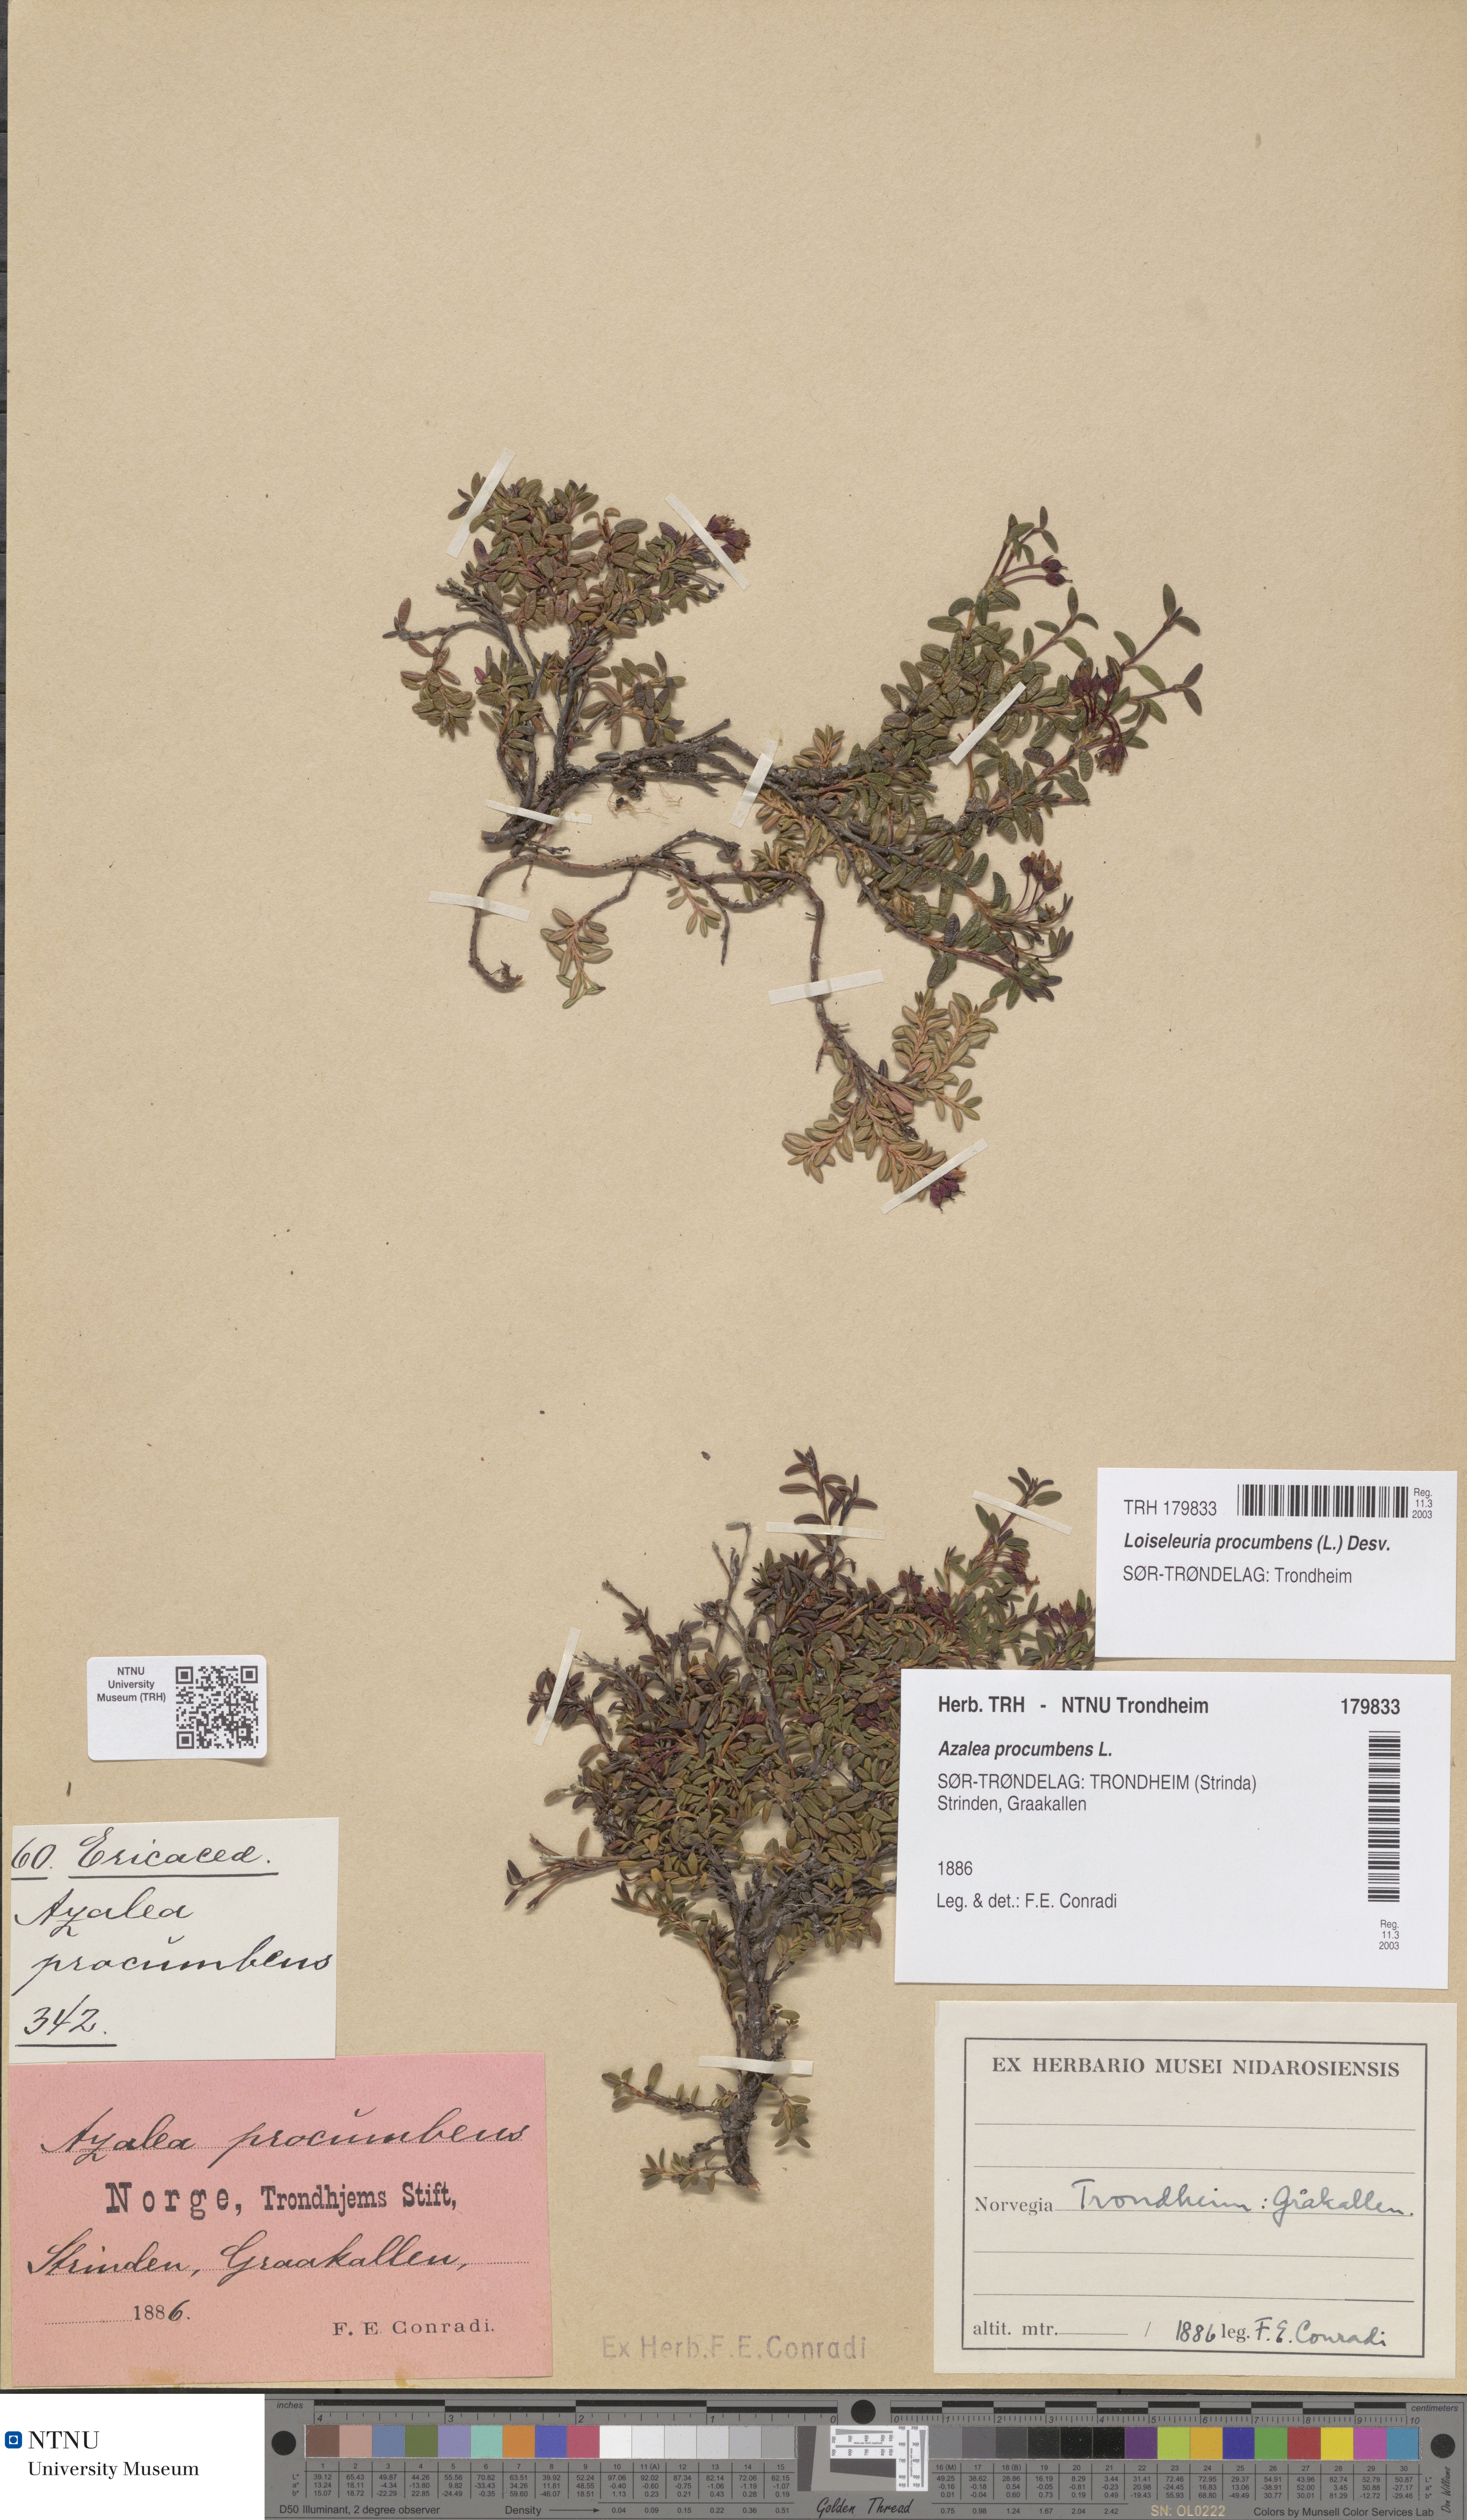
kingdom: Plantae
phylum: Tracheophyta
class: Magnoliopsida
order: Ericales
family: Ericaceae
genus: Kalmia
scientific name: Kalmia procumbens
